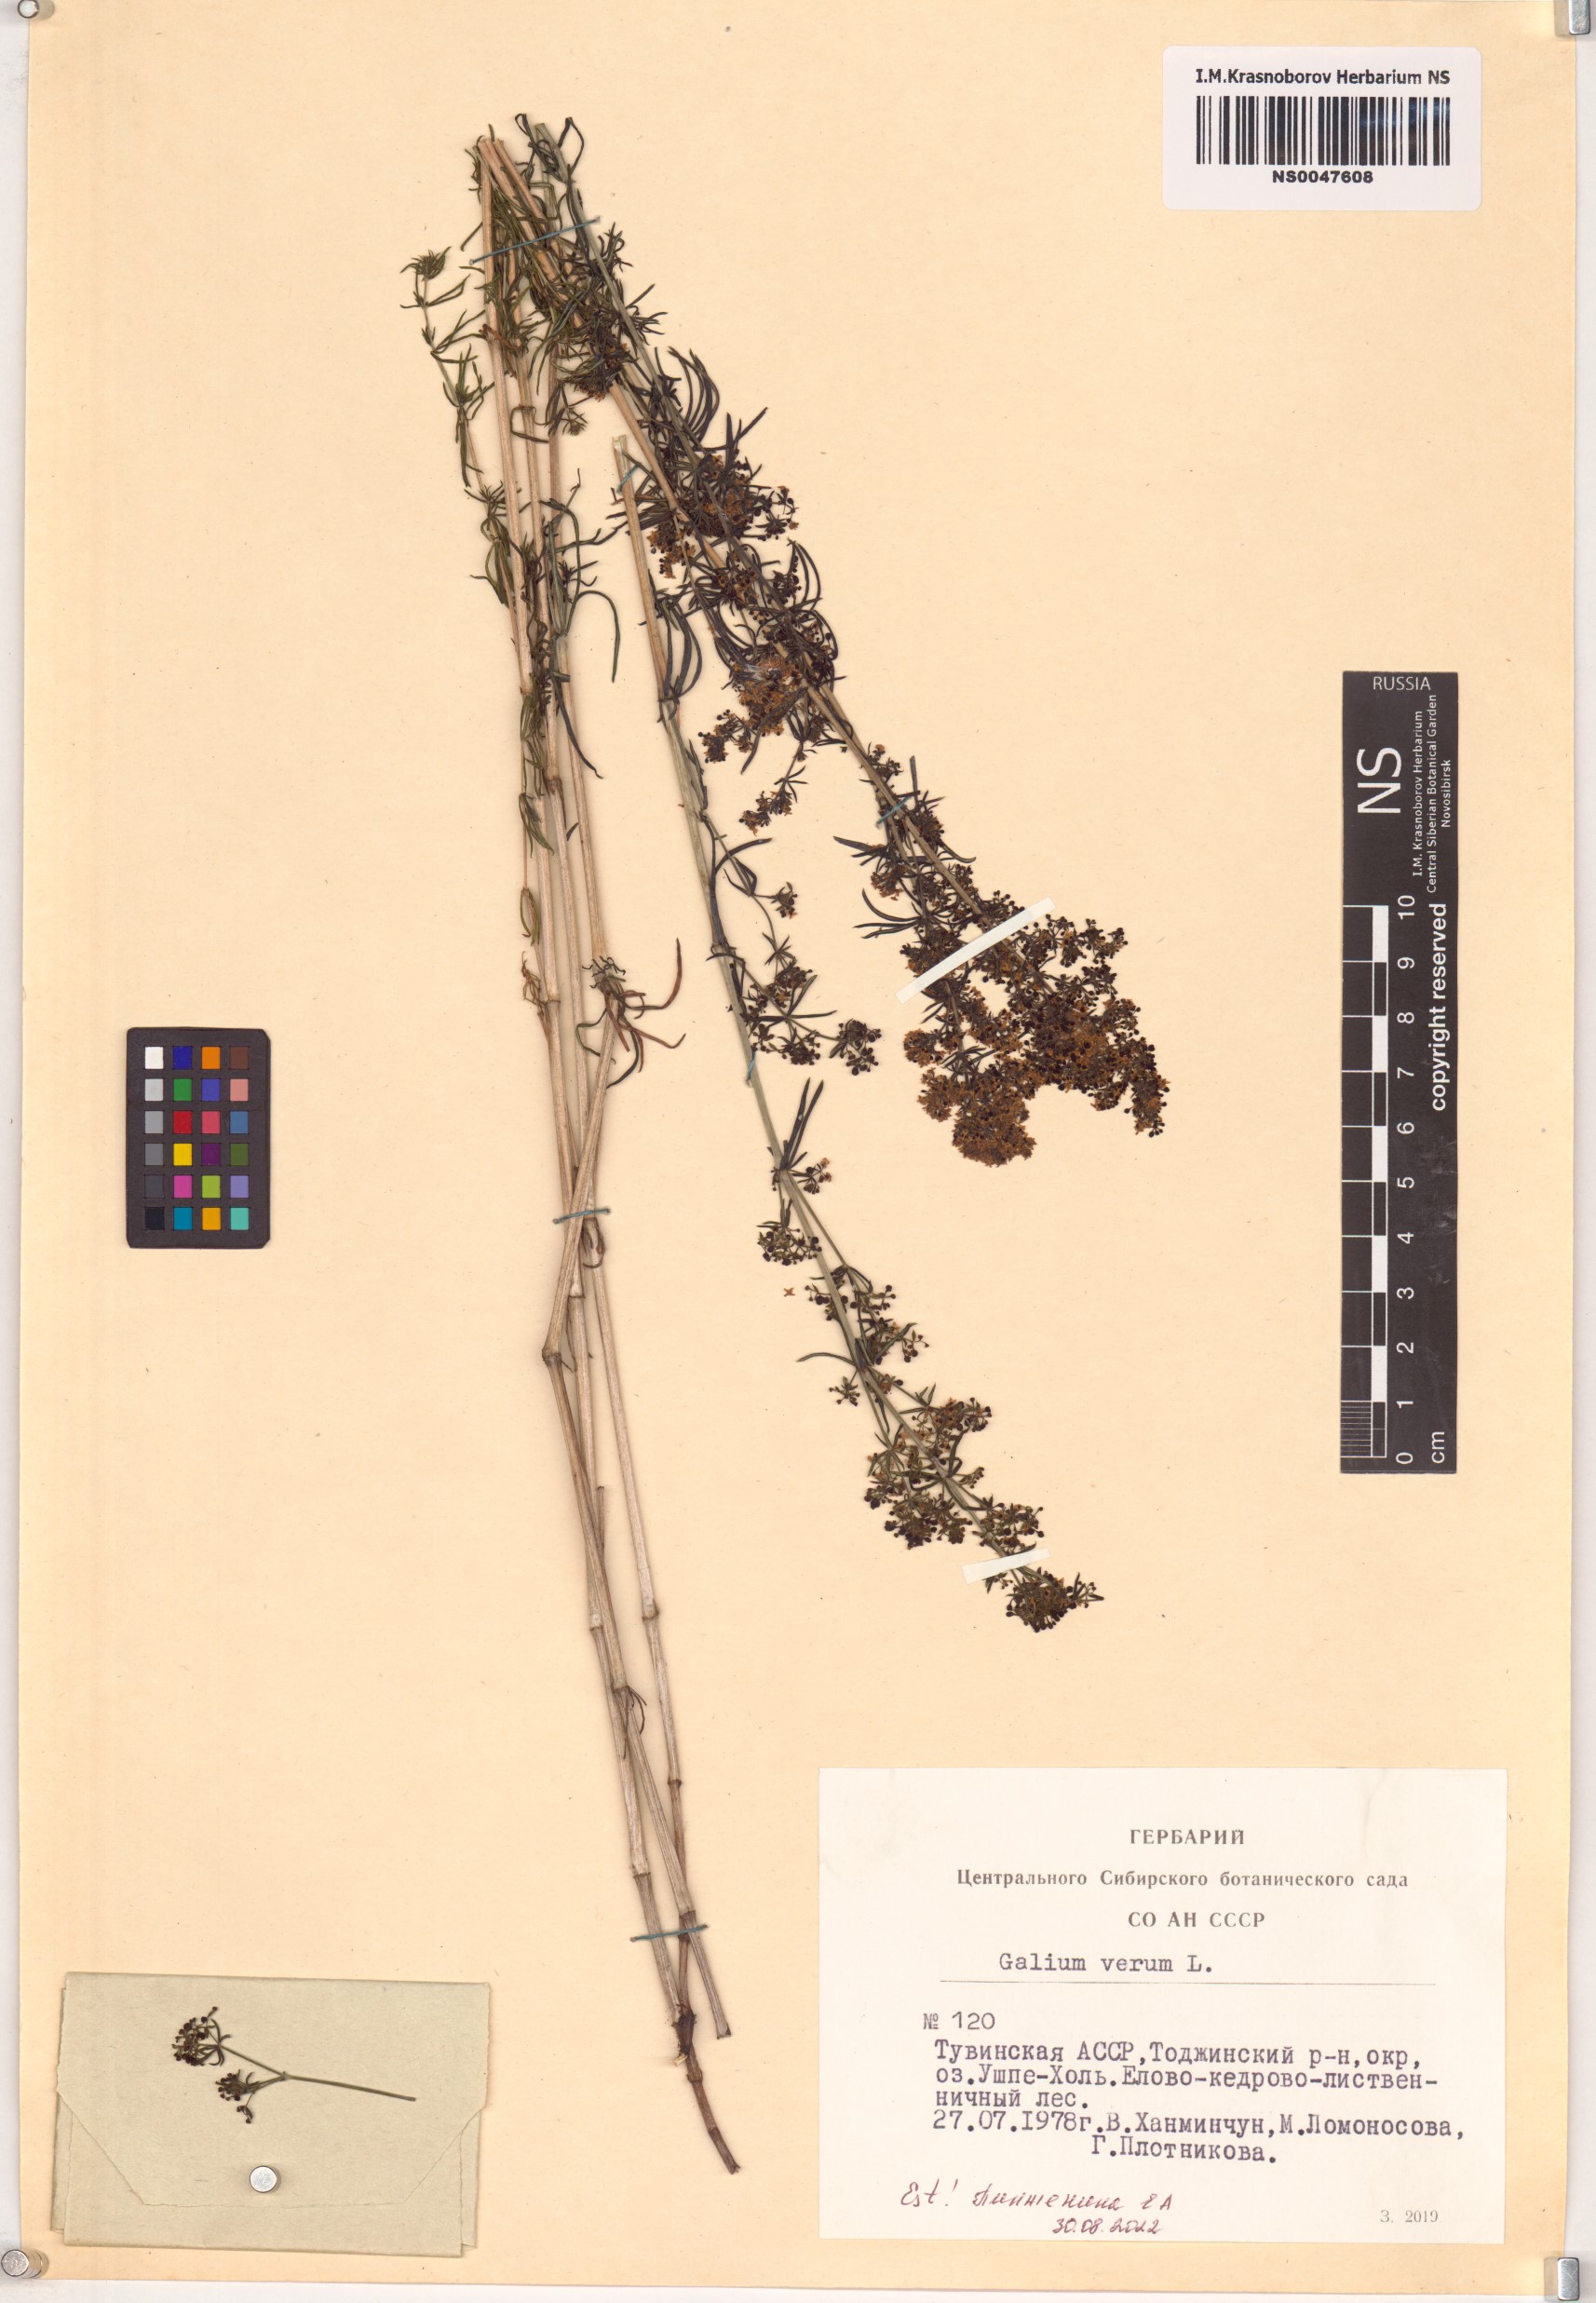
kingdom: Plantae
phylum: Tracheophyta
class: Magnoliopsida
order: Gentianales
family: Rubiaceae
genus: Galium
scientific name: Galium verum
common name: Lady's bedstraw
